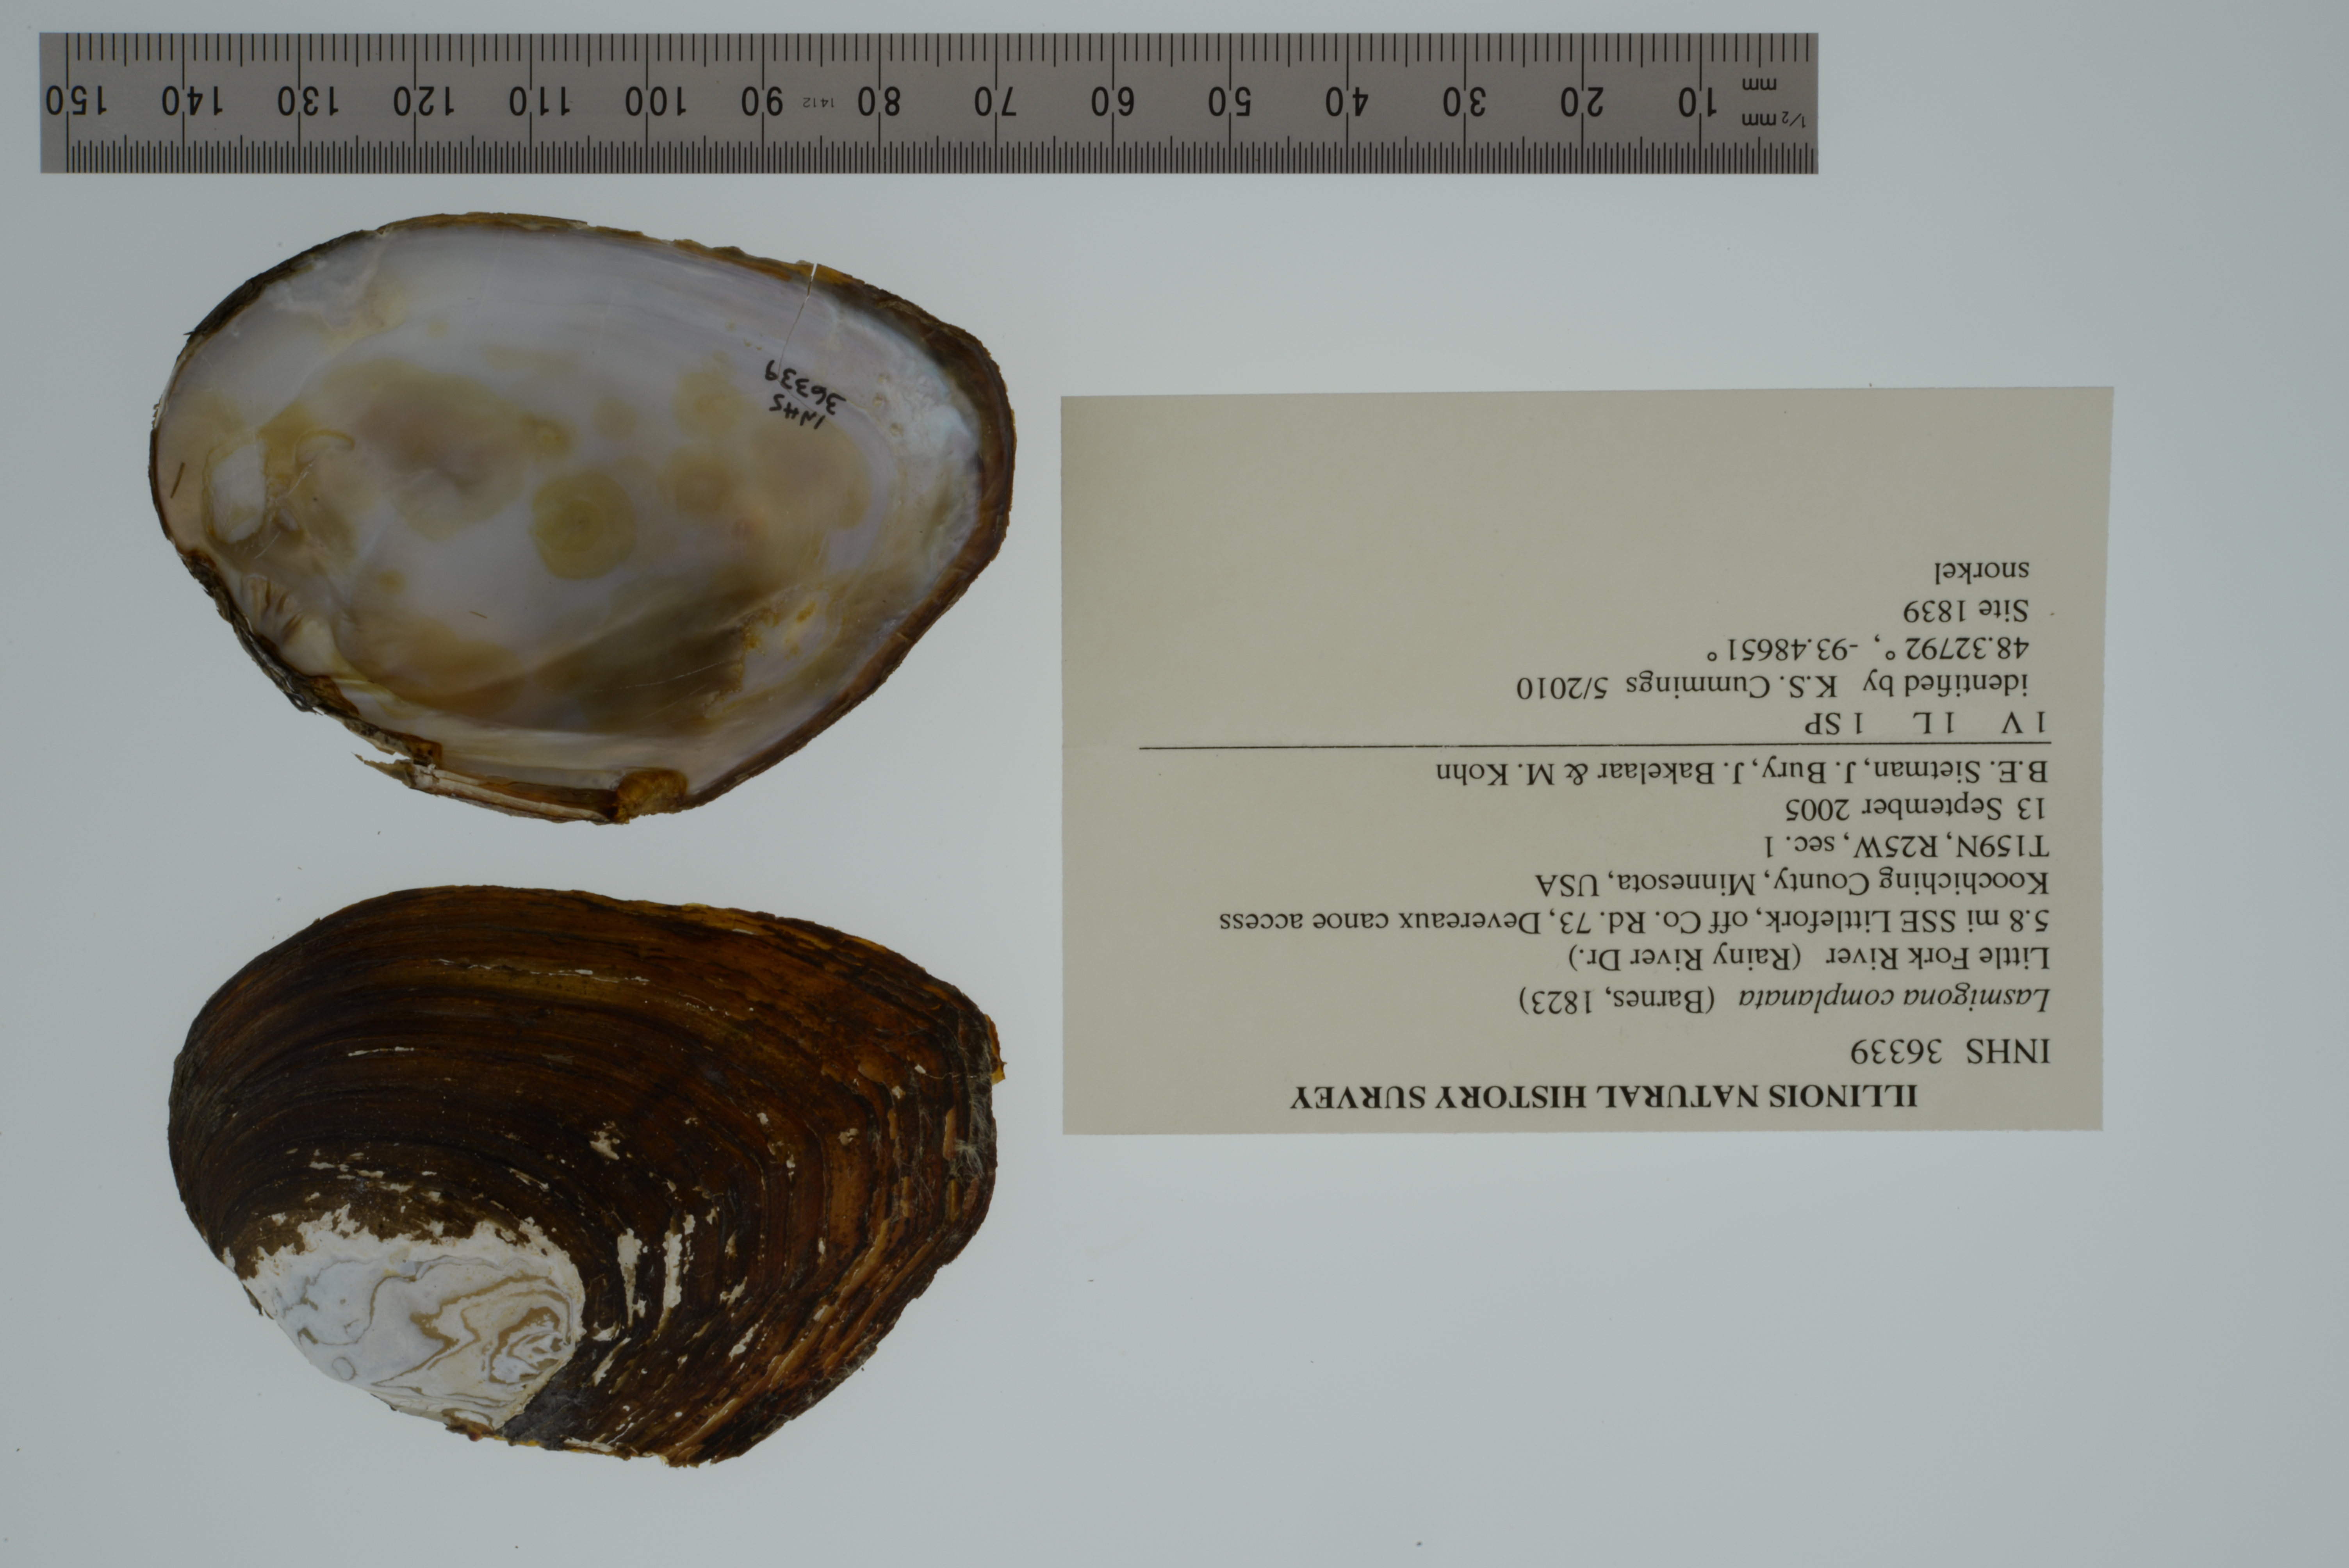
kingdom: Animalia
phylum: Mollusca
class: Bivalvia
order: Unionida
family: Unionidae
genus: Lasmigona
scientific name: Lasmigona complanata
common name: White heelsplitter
